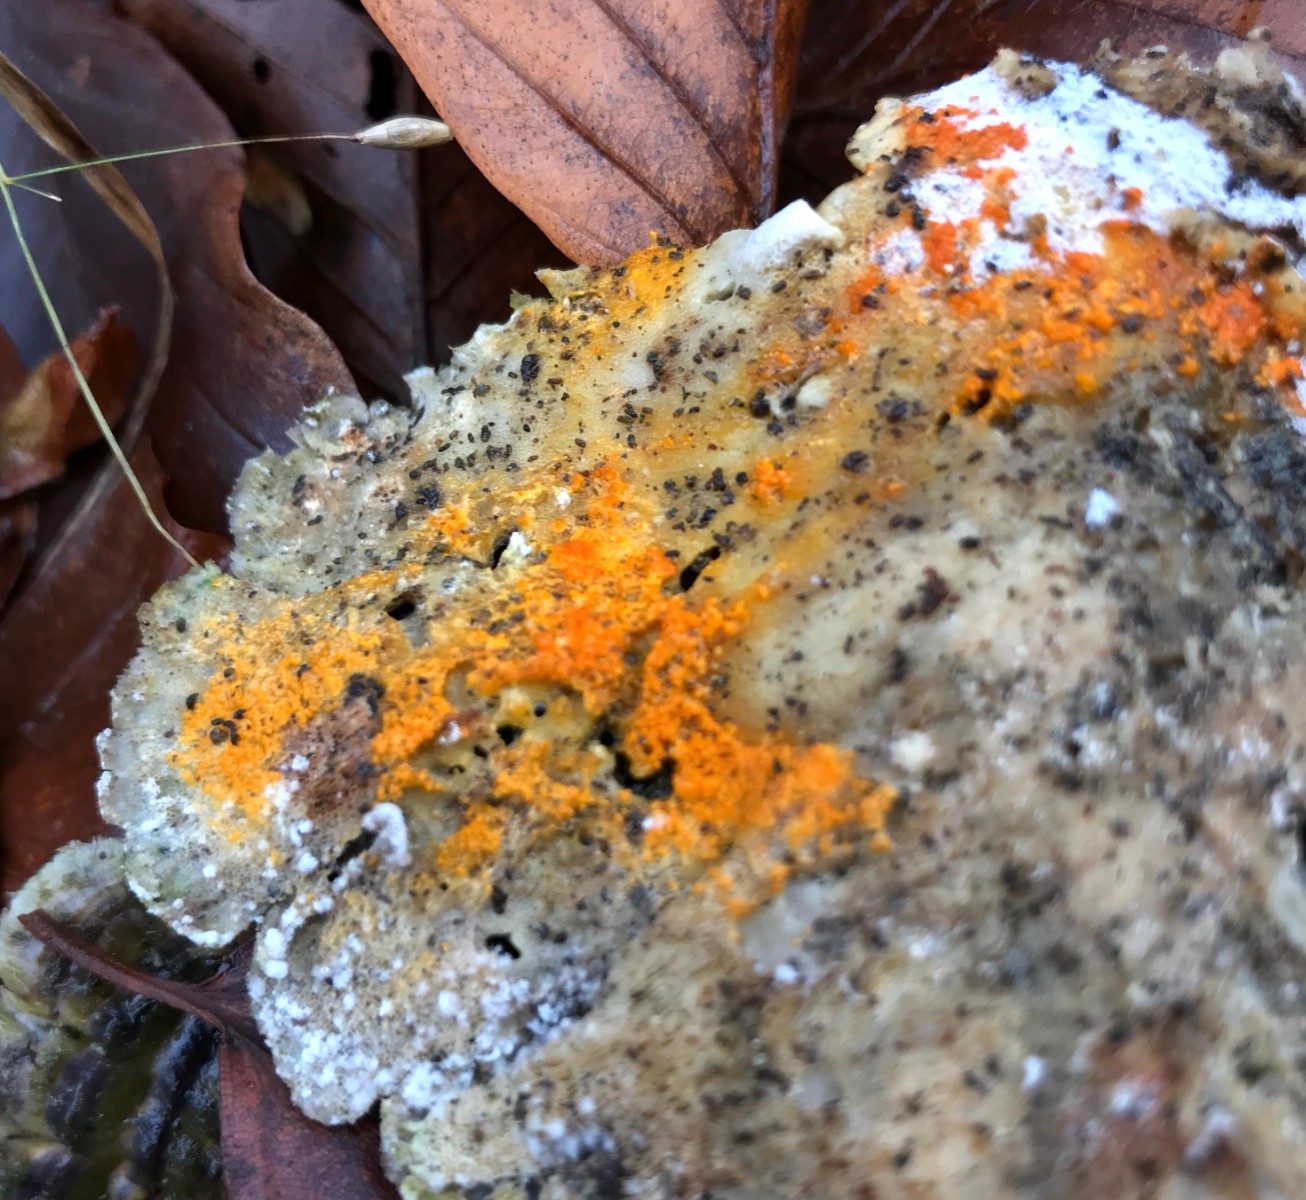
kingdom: Fungi
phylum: Ascomycota
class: Sordariomycetes
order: Hypocreales
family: Hypocreaceae
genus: Hypomyces
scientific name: Hypomyces aurantius
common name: almindelig snylteskorpe
